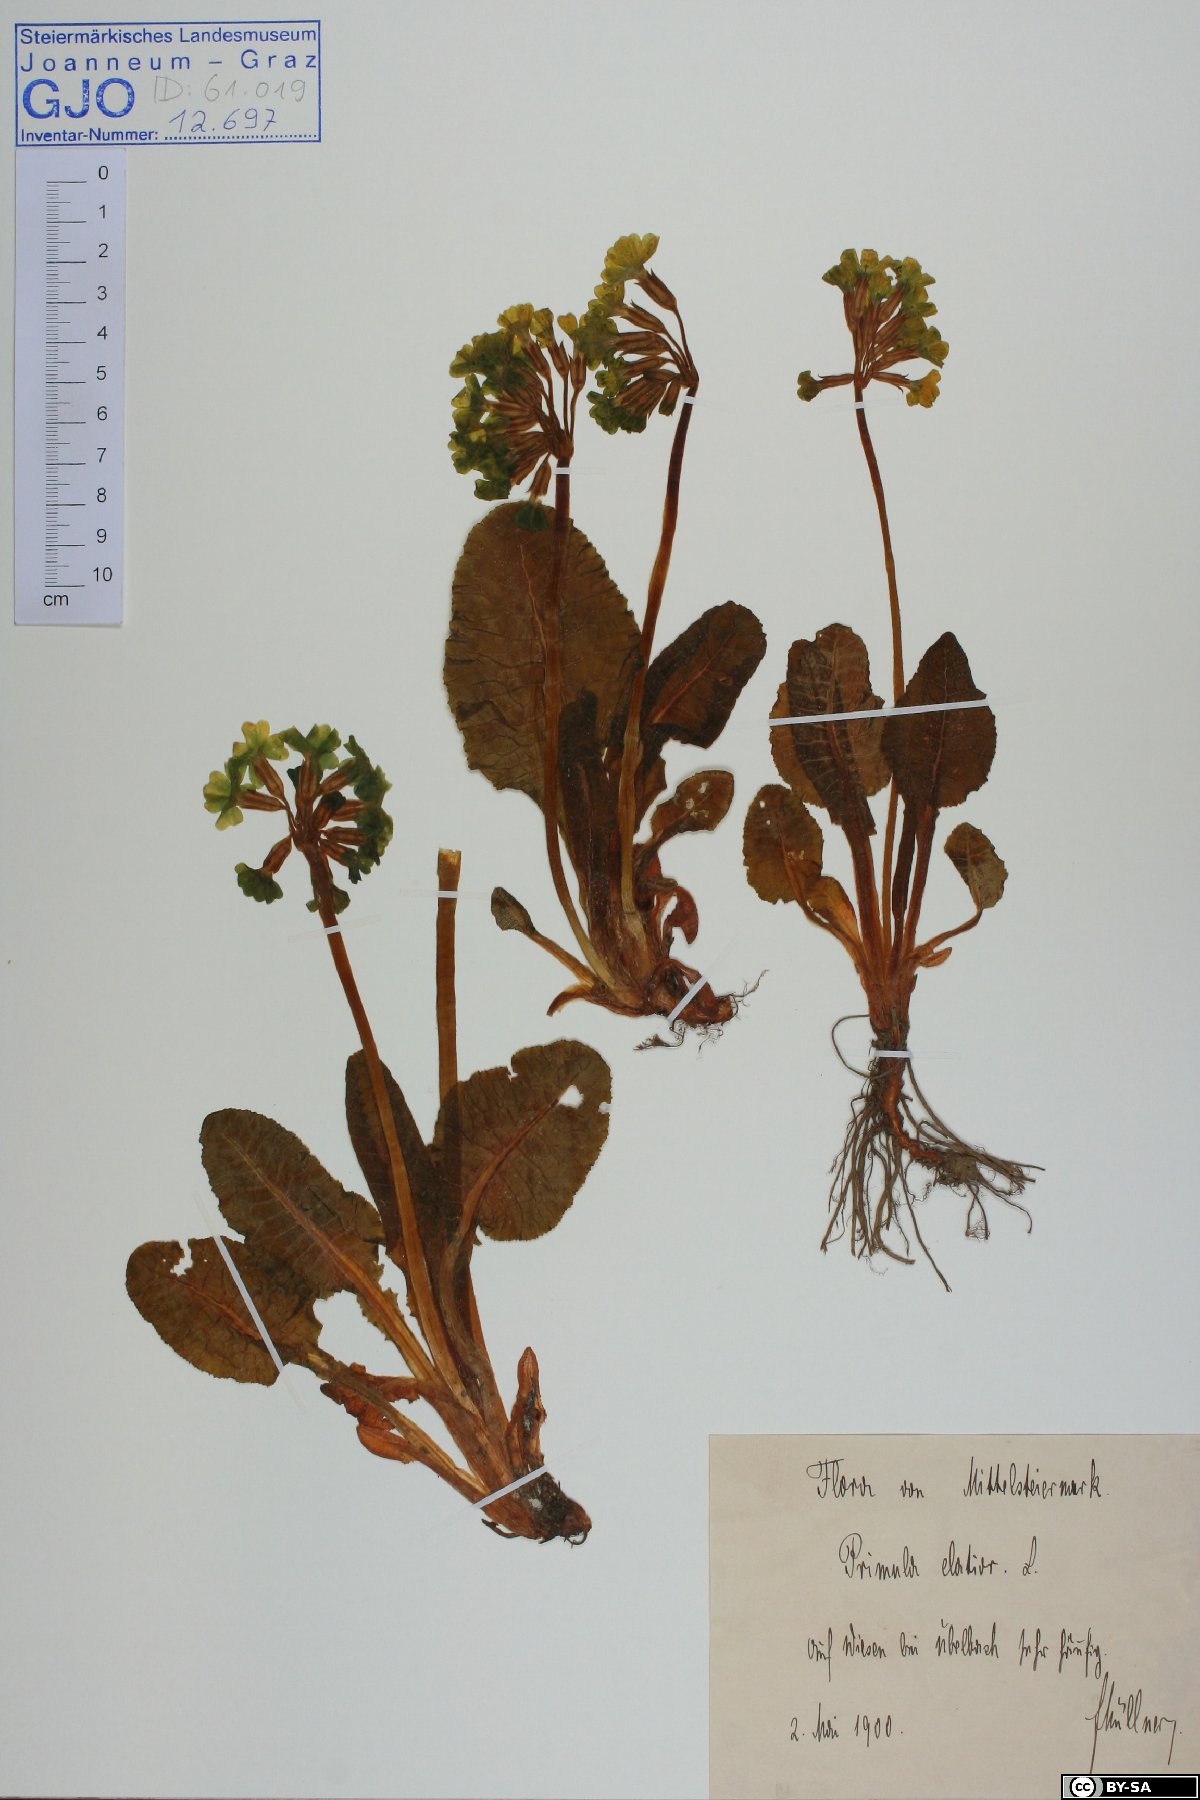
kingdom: Plantae
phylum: Tracheophyta
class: Magnoliopsida
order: Ericales
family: Primulaceae
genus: Primula
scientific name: Primula elatior
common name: Oxlip
